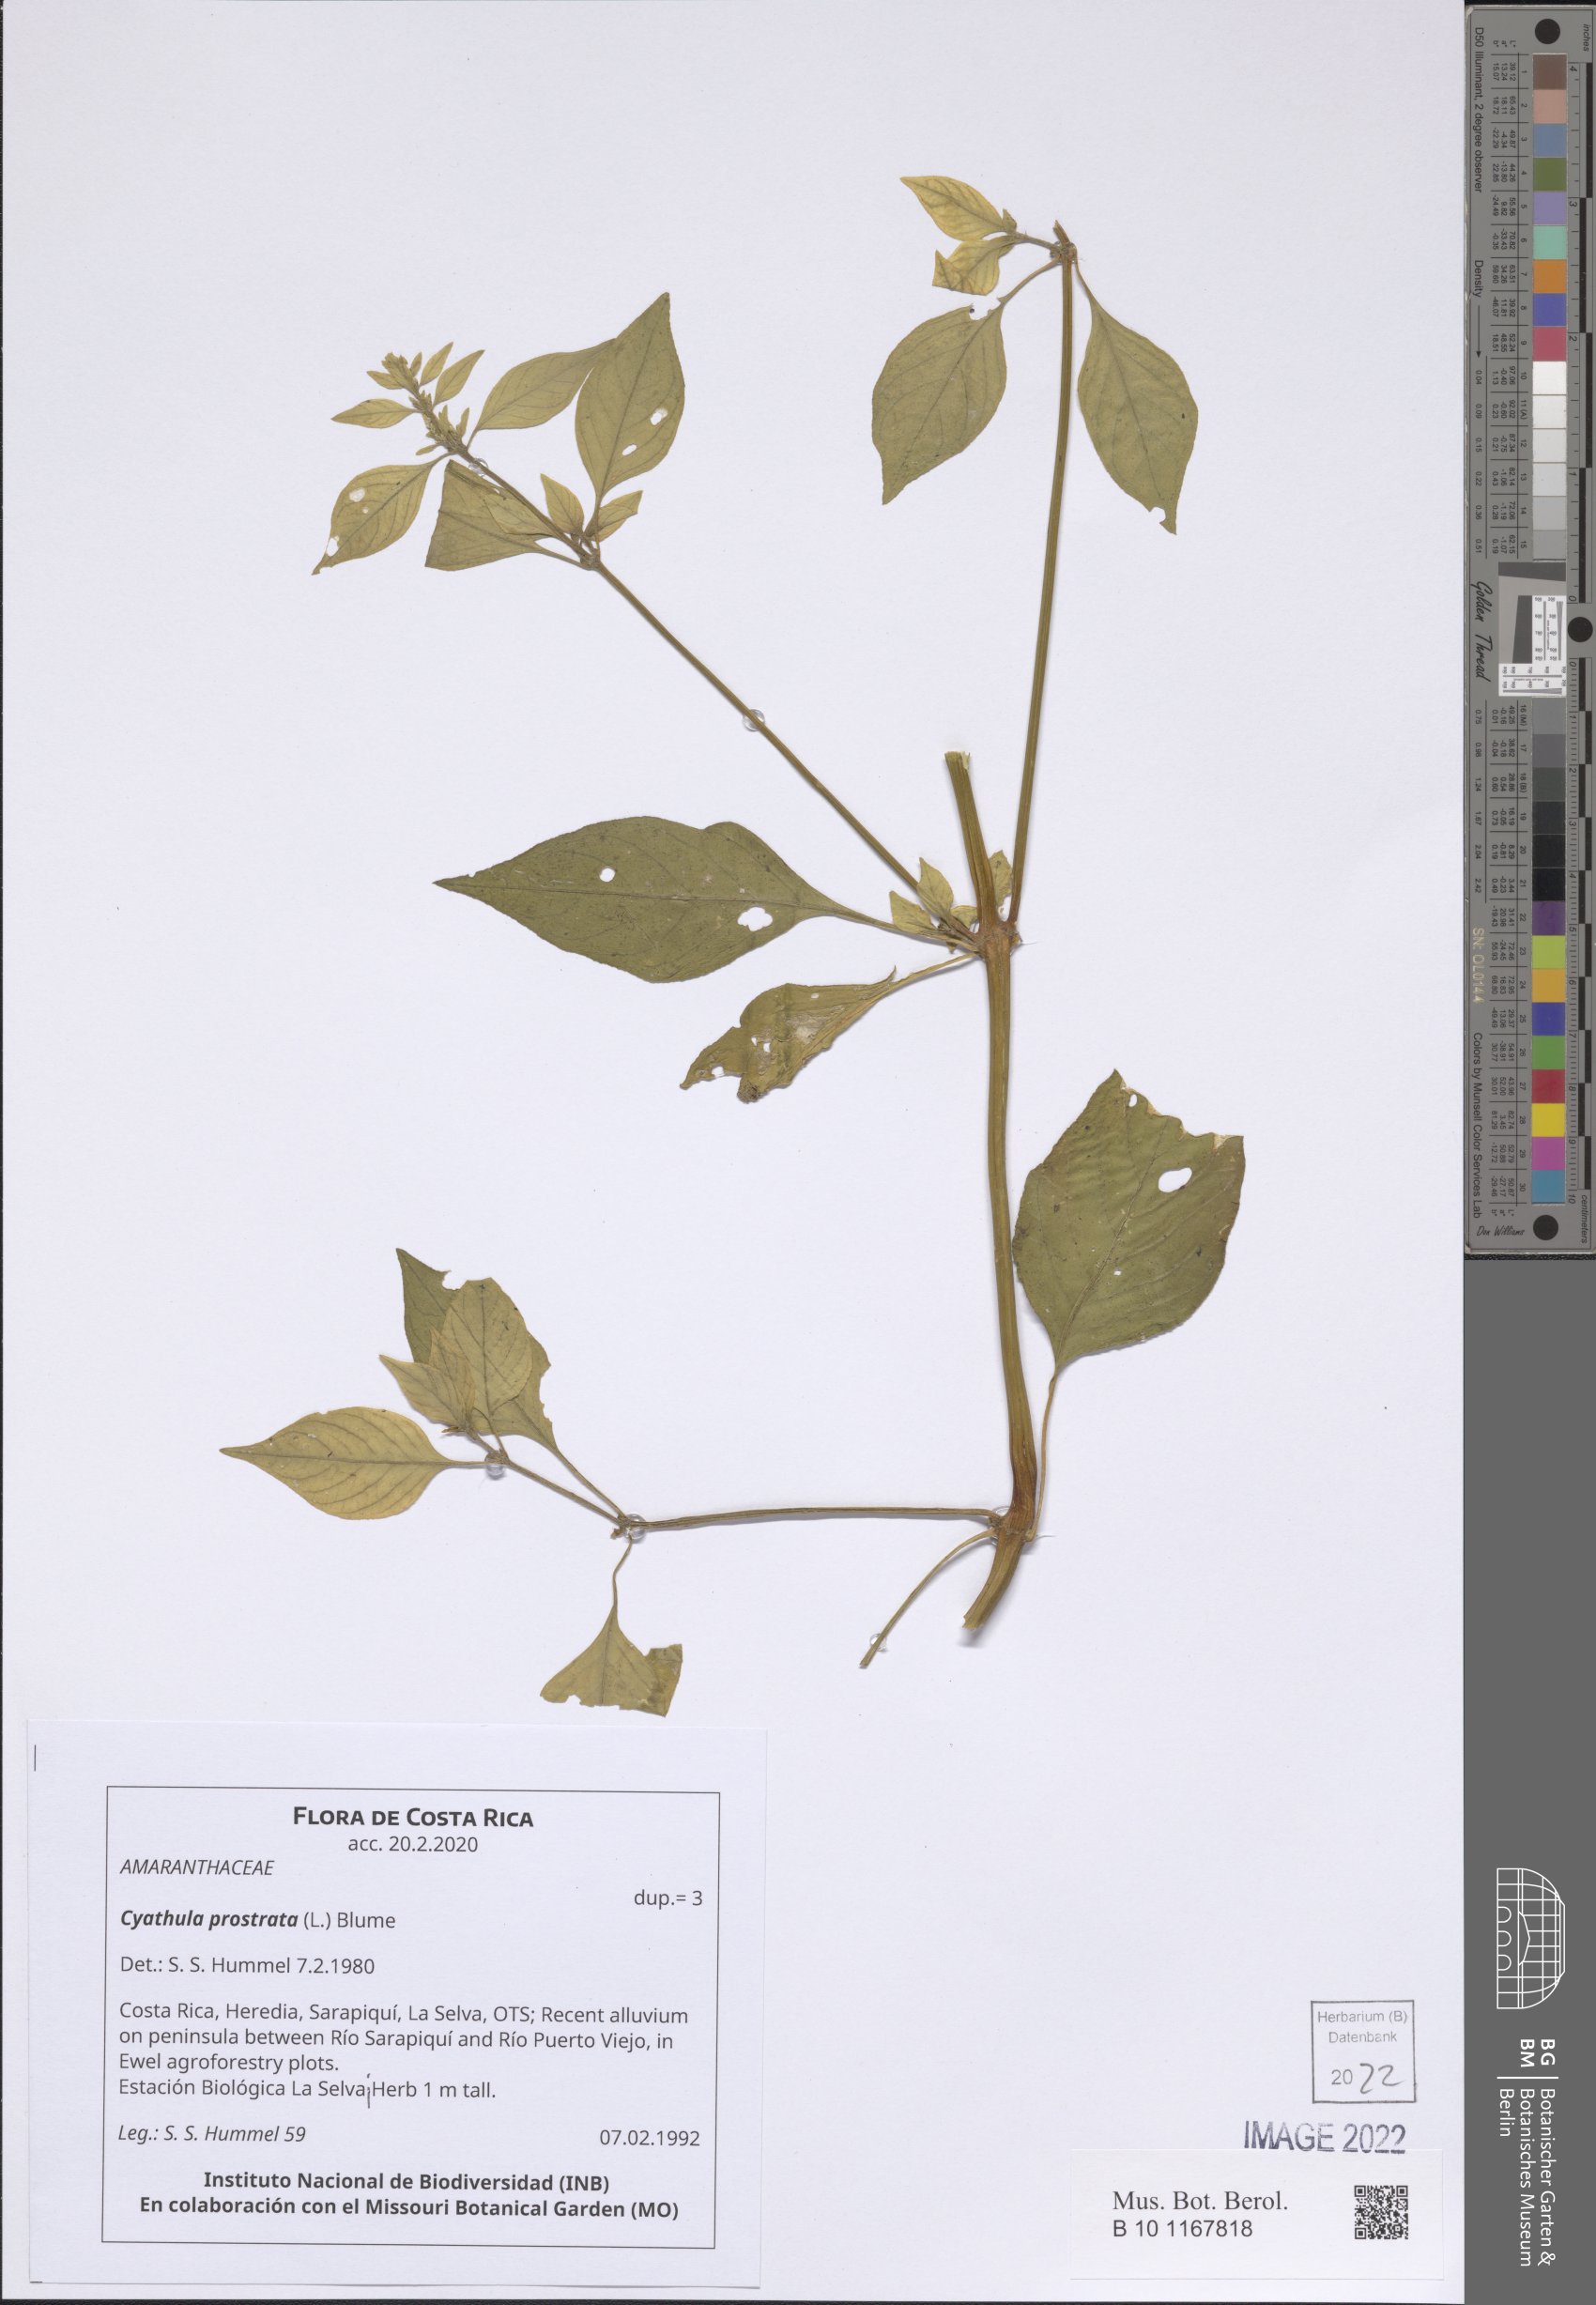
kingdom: Plantae
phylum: Tracheophyta
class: Magnoliopsida
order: Caryophyllales
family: Amaranthaceae
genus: Cyathula
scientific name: Cyathula prostrata
